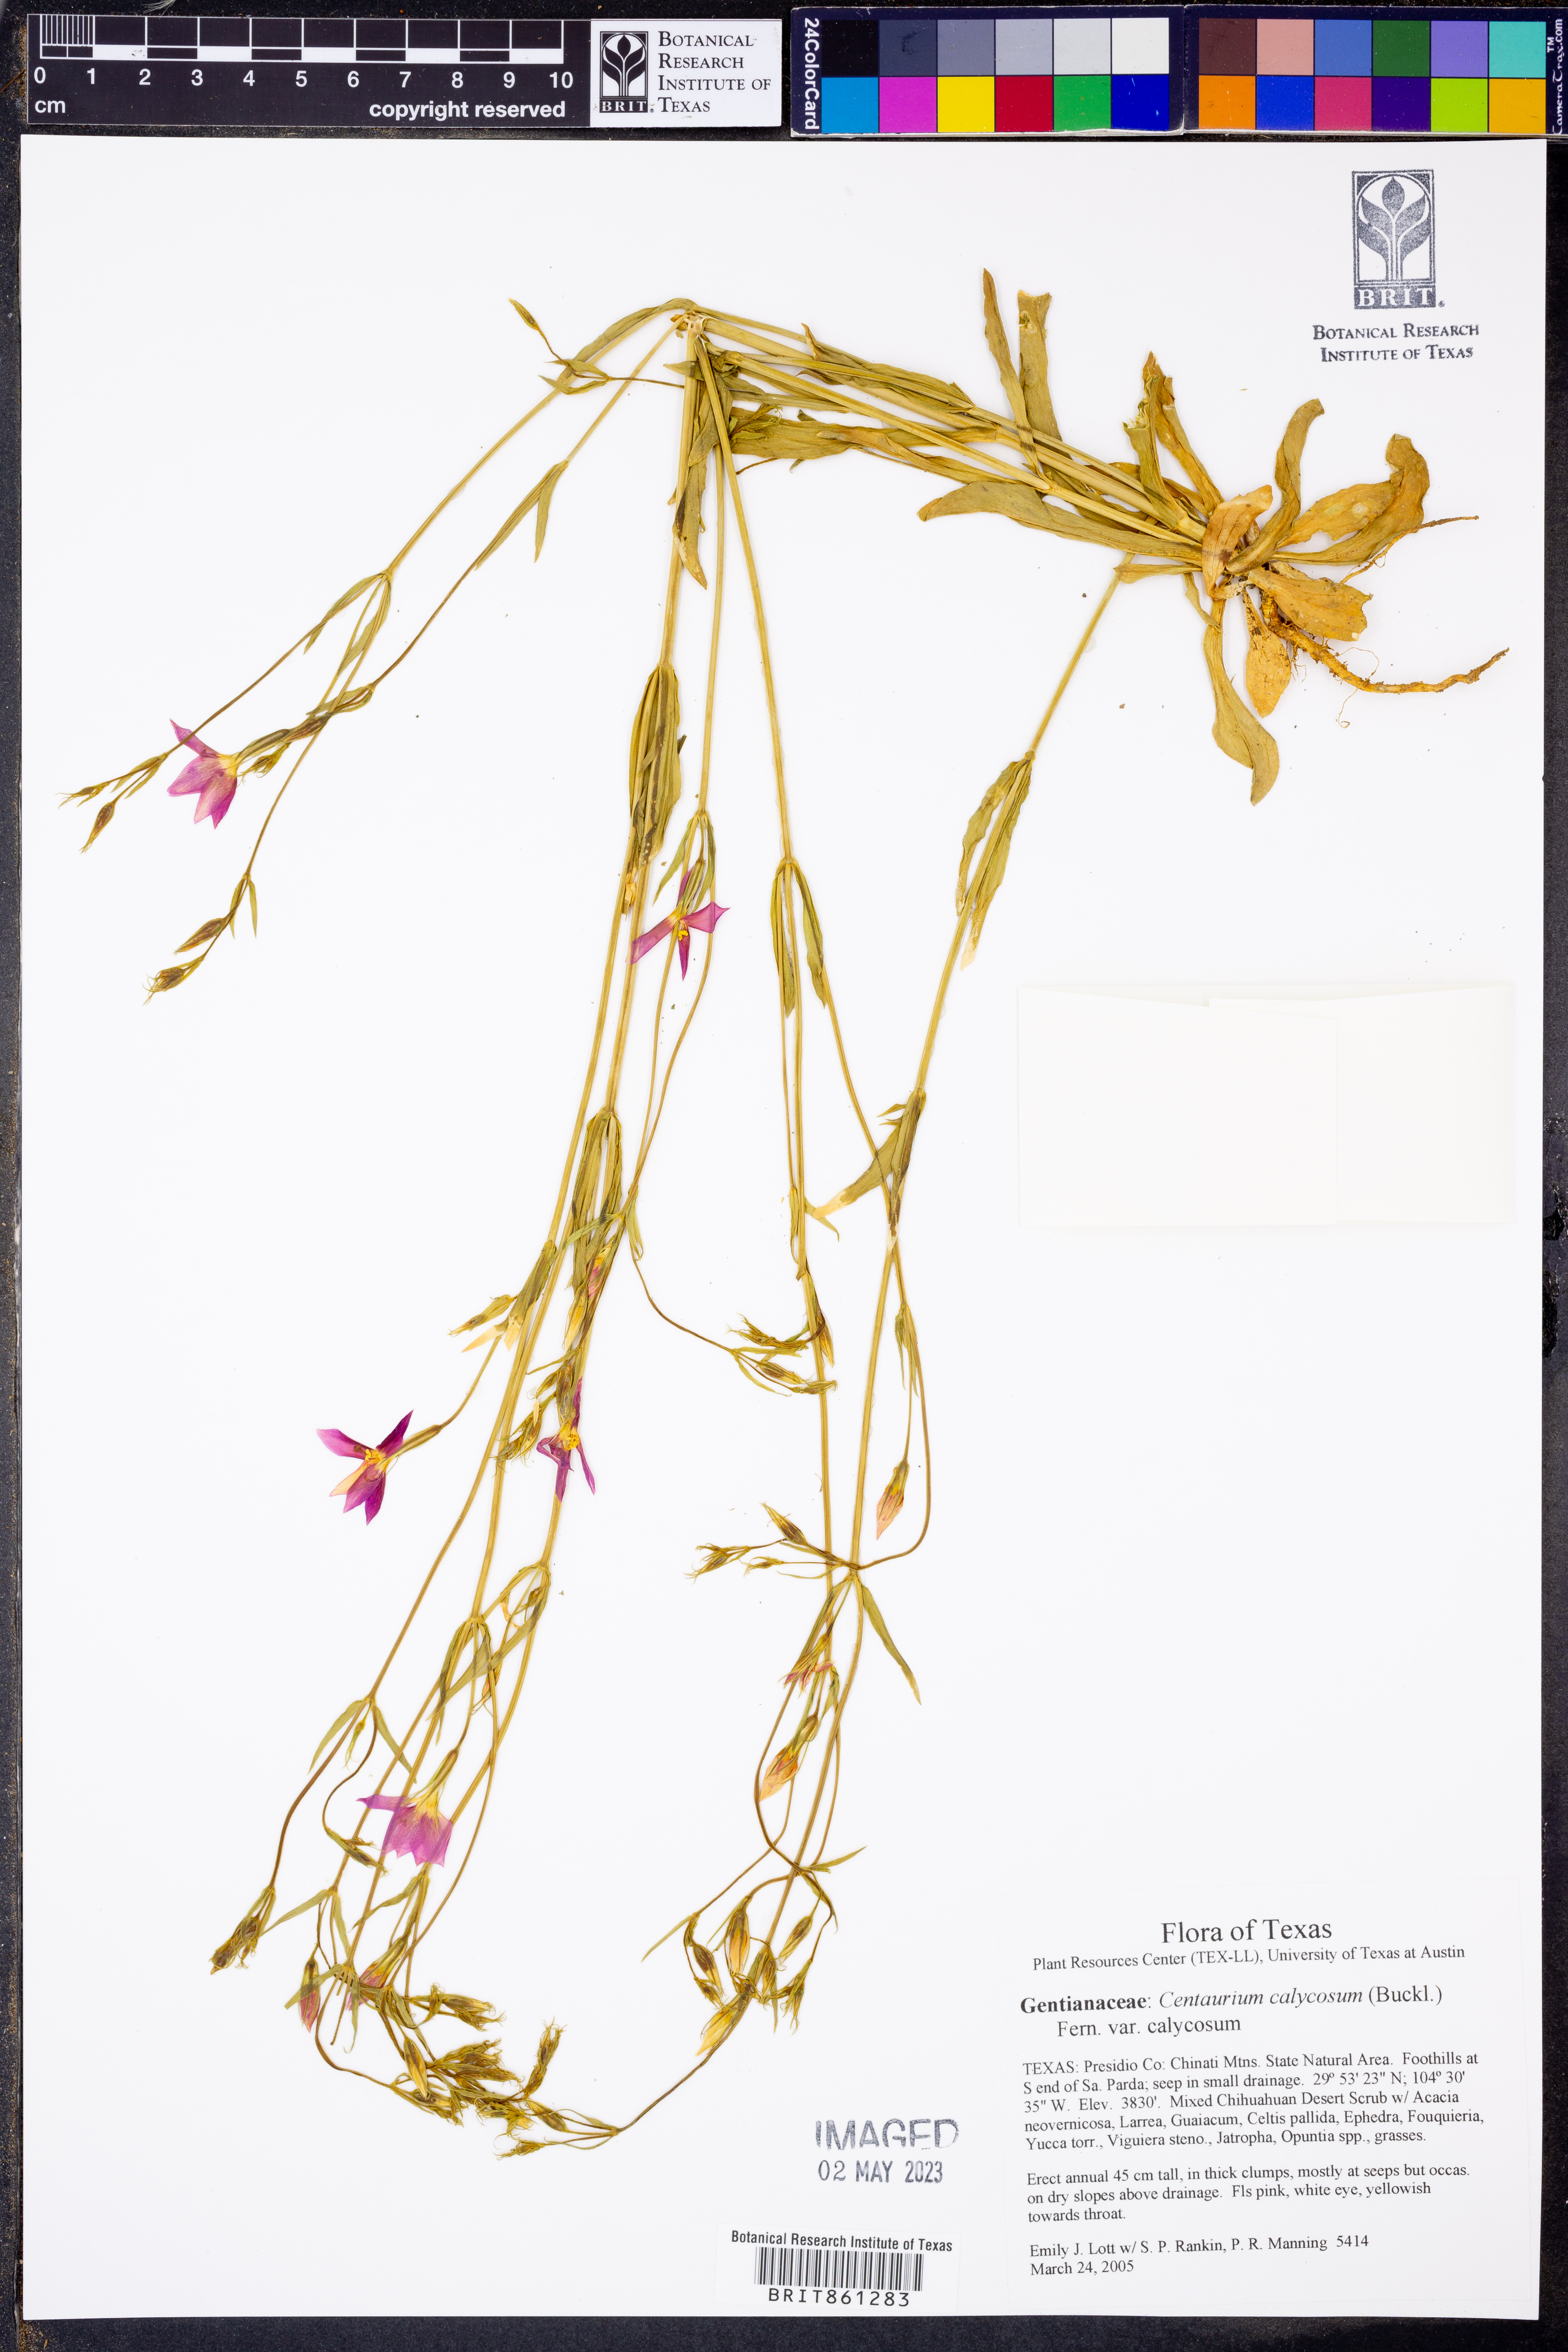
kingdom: Plantae
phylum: Tracheophyta
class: Magnoliopsida
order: Gentianales
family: Gentianaceae
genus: Zeltnera
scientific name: Zeltnera calycosa
